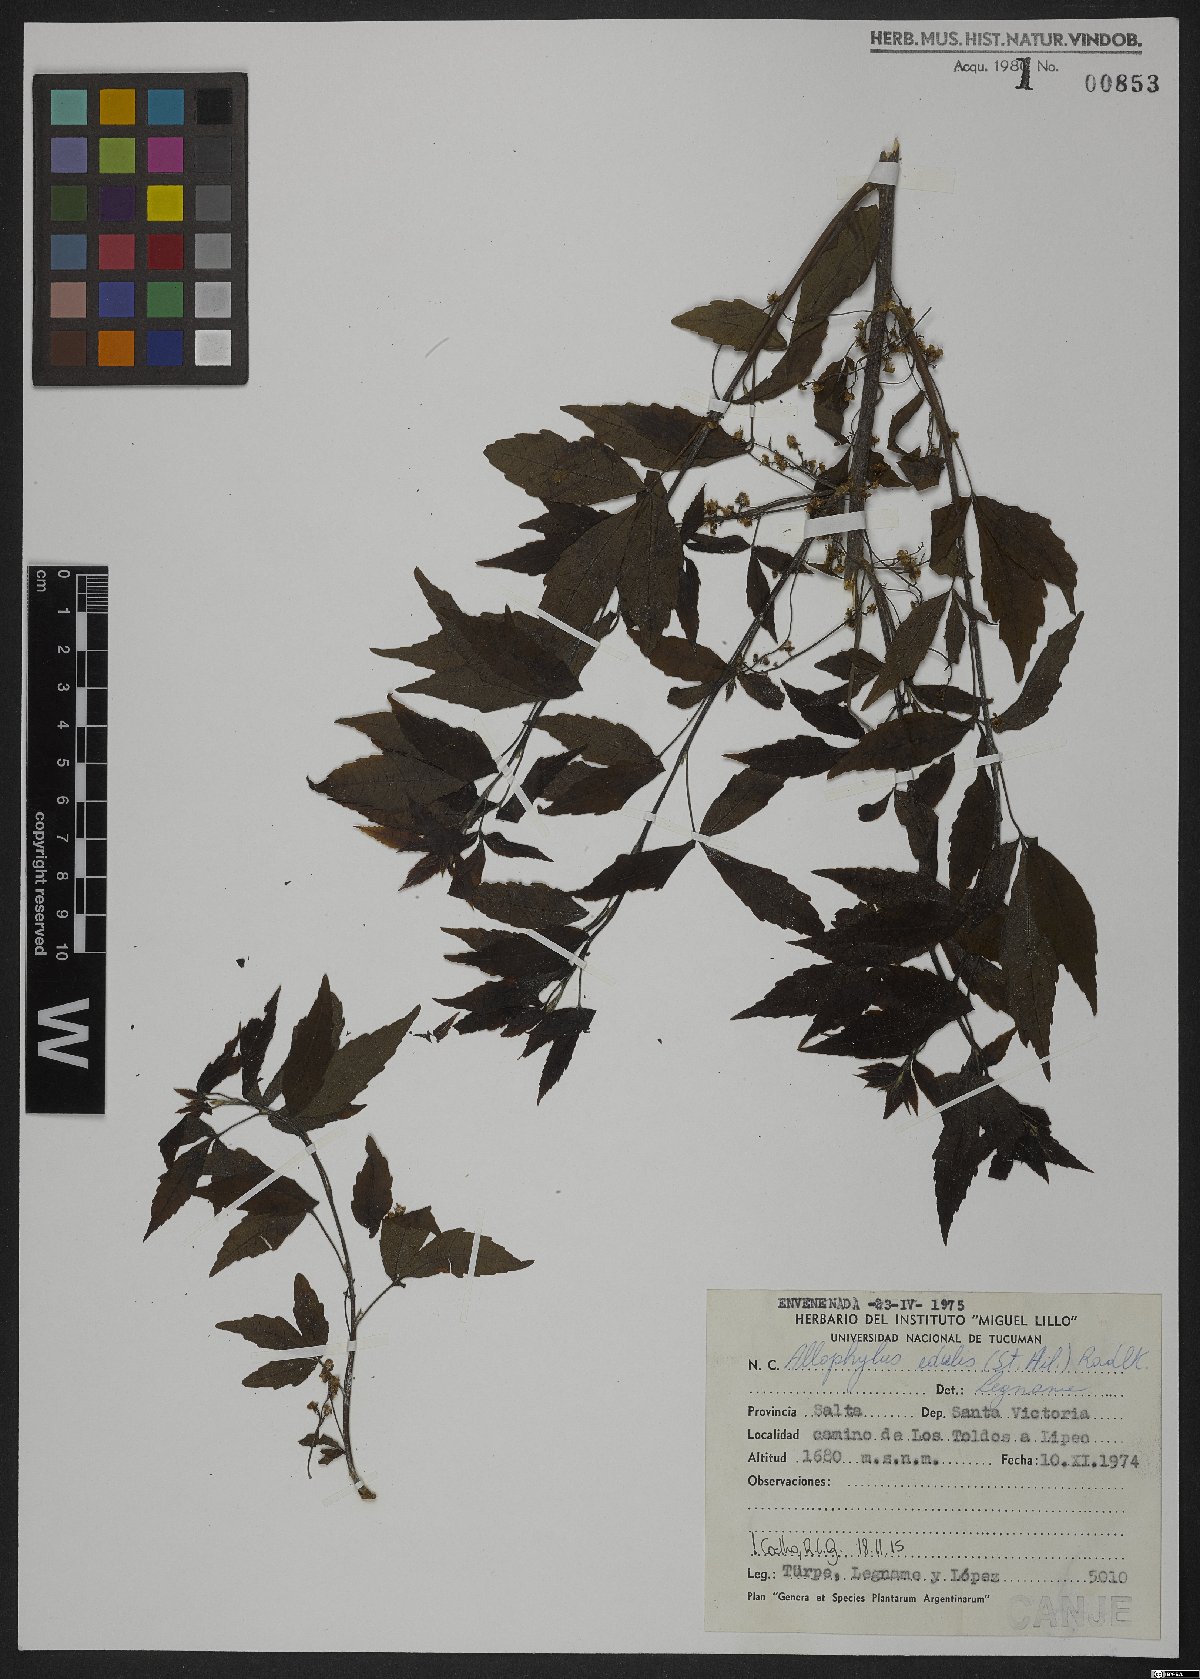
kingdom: Plantae
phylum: Tracheophyta
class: Magnoliopsida
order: Sapindales
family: Sapindaceae
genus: Allophylus
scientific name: Allophylus edulis
